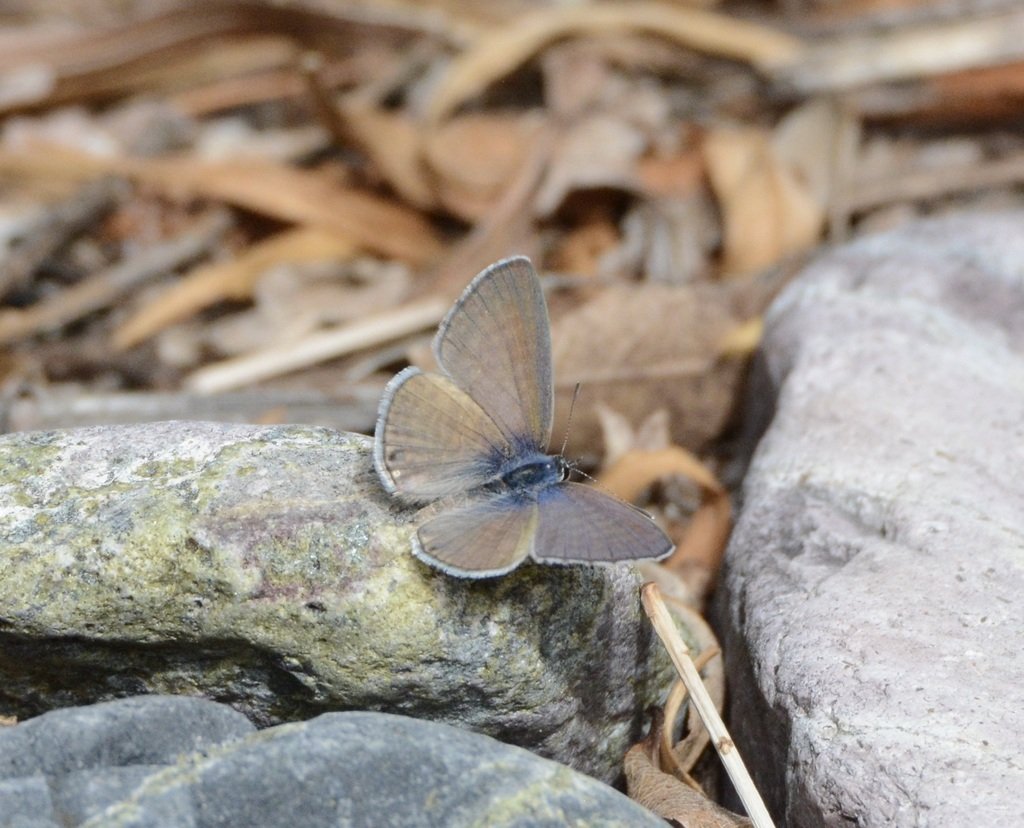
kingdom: Animalia
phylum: Arthropoda
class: Insecta
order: Lepidoptera
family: Lycaenidae
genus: Leptotes
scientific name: Leptotes marina
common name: Marine Blue
